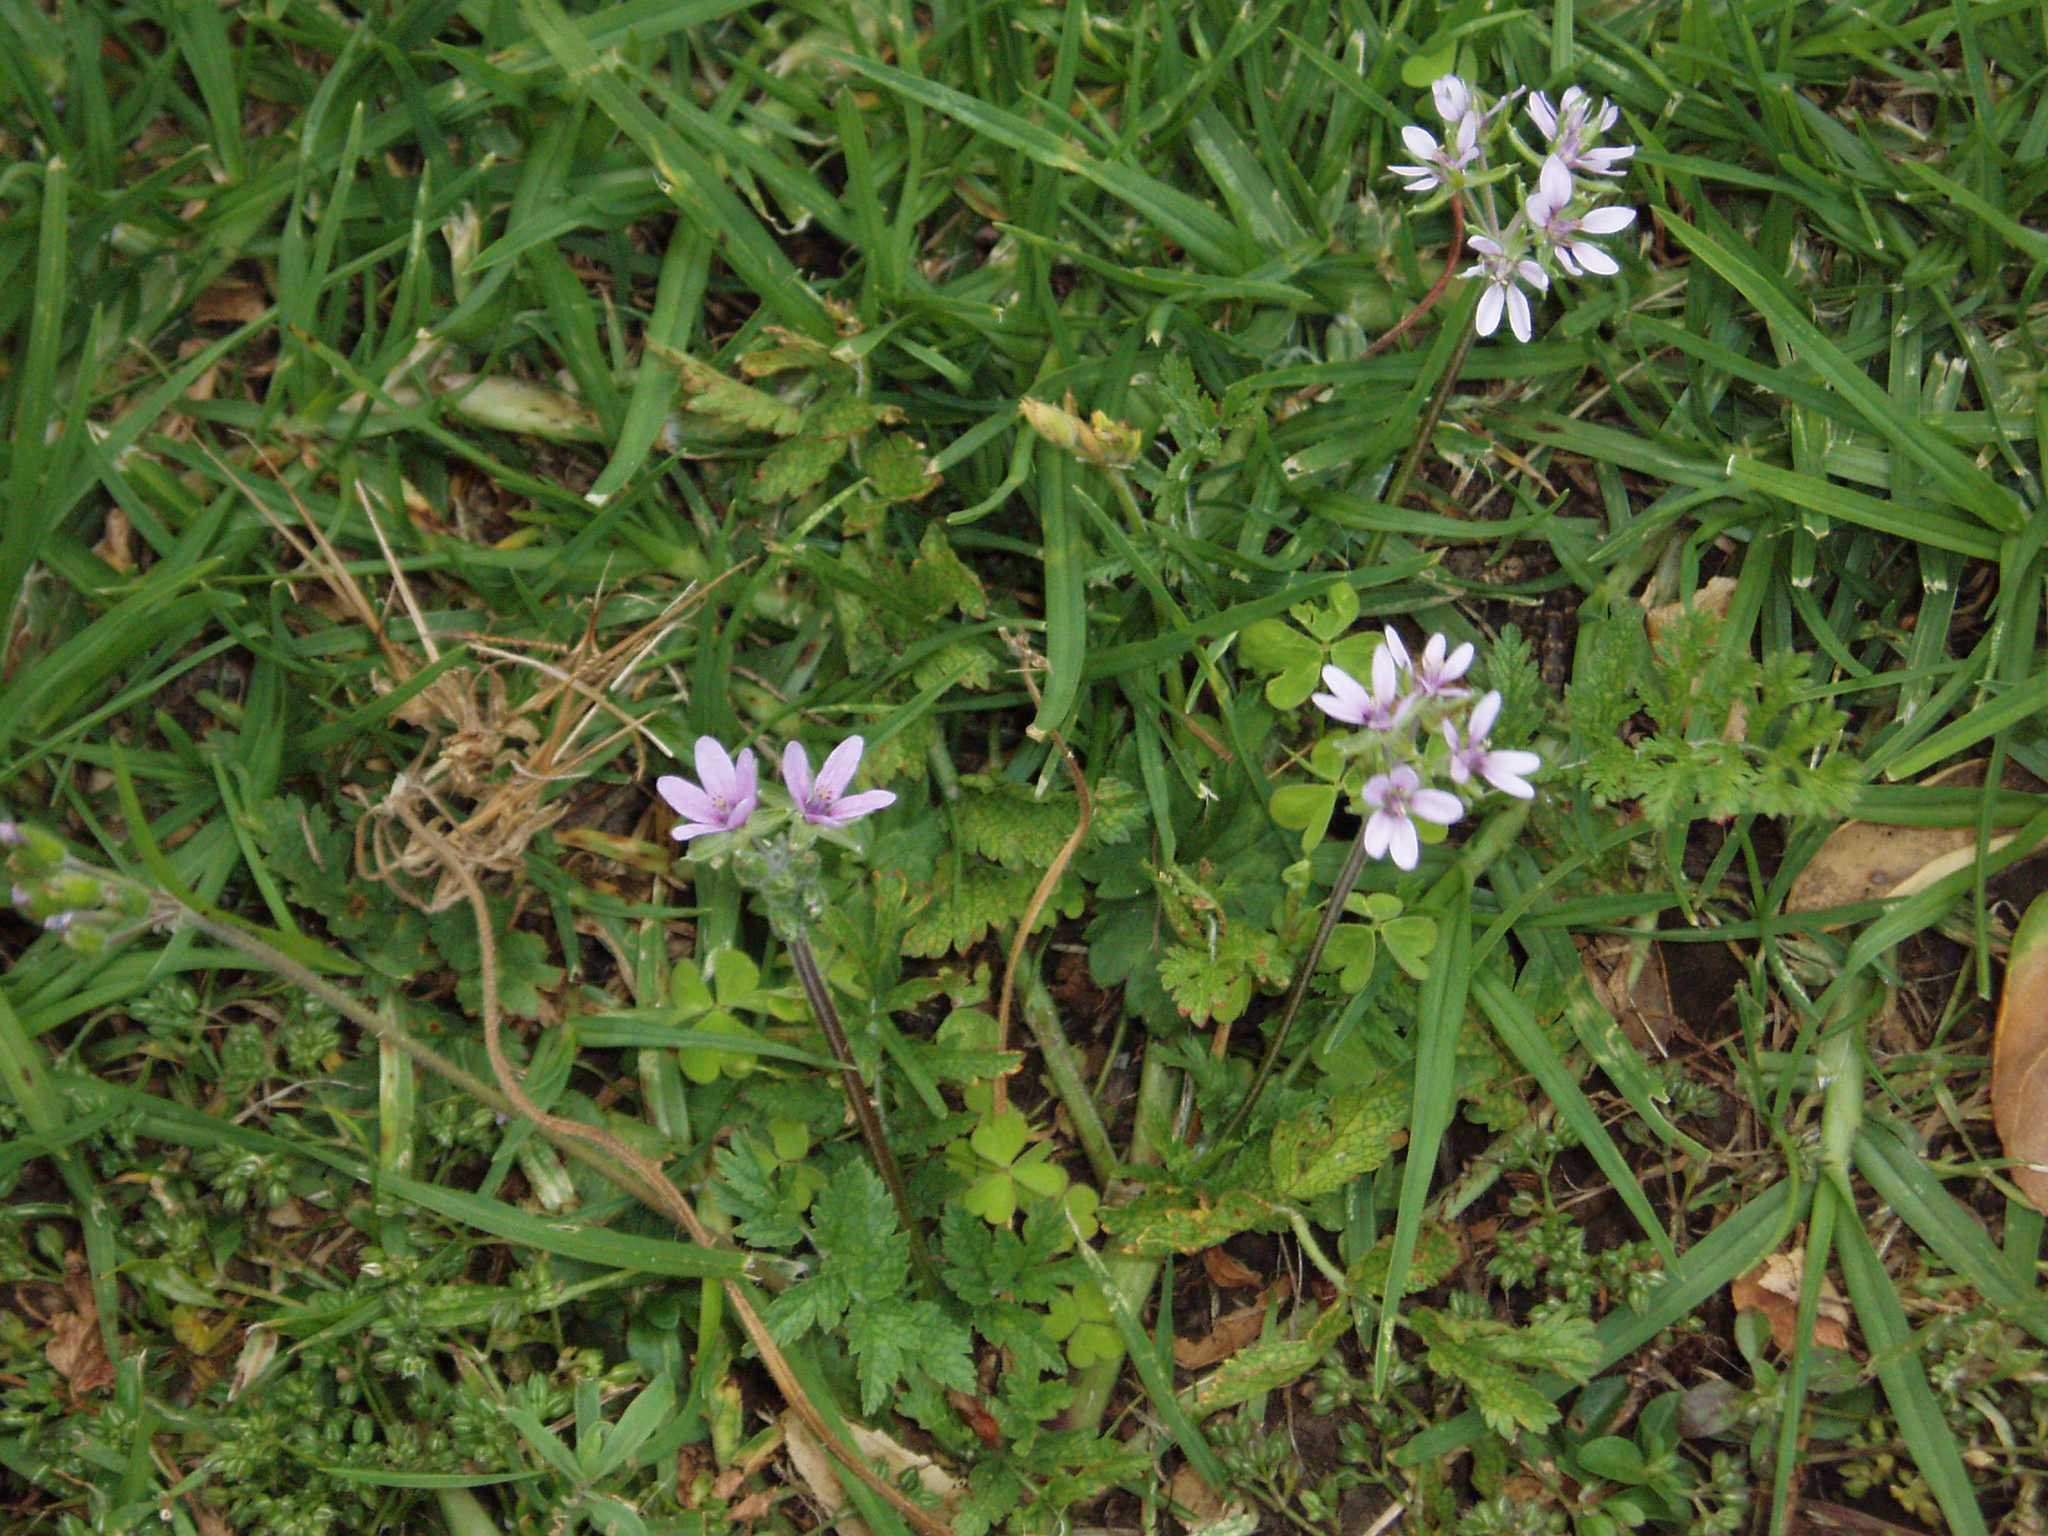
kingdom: Plantae
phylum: Tracheophyta
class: Magnoliopsida
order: Geraniales
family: Geraniaceae
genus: Erodium
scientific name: Erodium moschatum
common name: Musk stork's-bill
